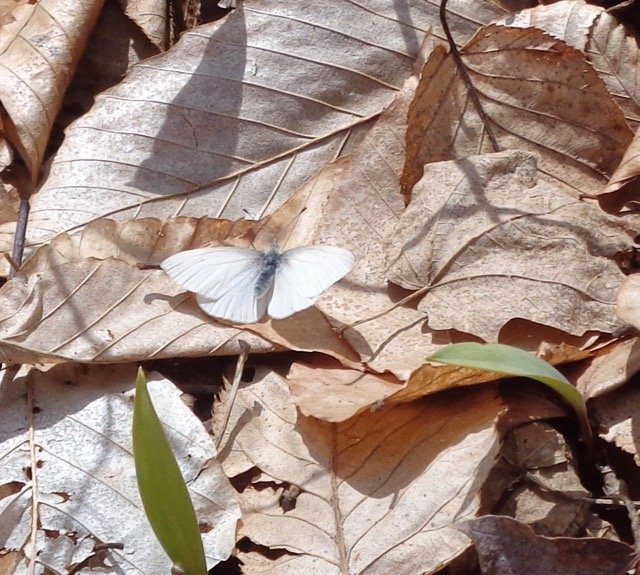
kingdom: Animalia
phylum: Arthropoda
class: Insecta
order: Lepidoptera
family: Pieridae
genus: Pieris
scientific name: Pieris virginiensis
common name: West Virginia White
